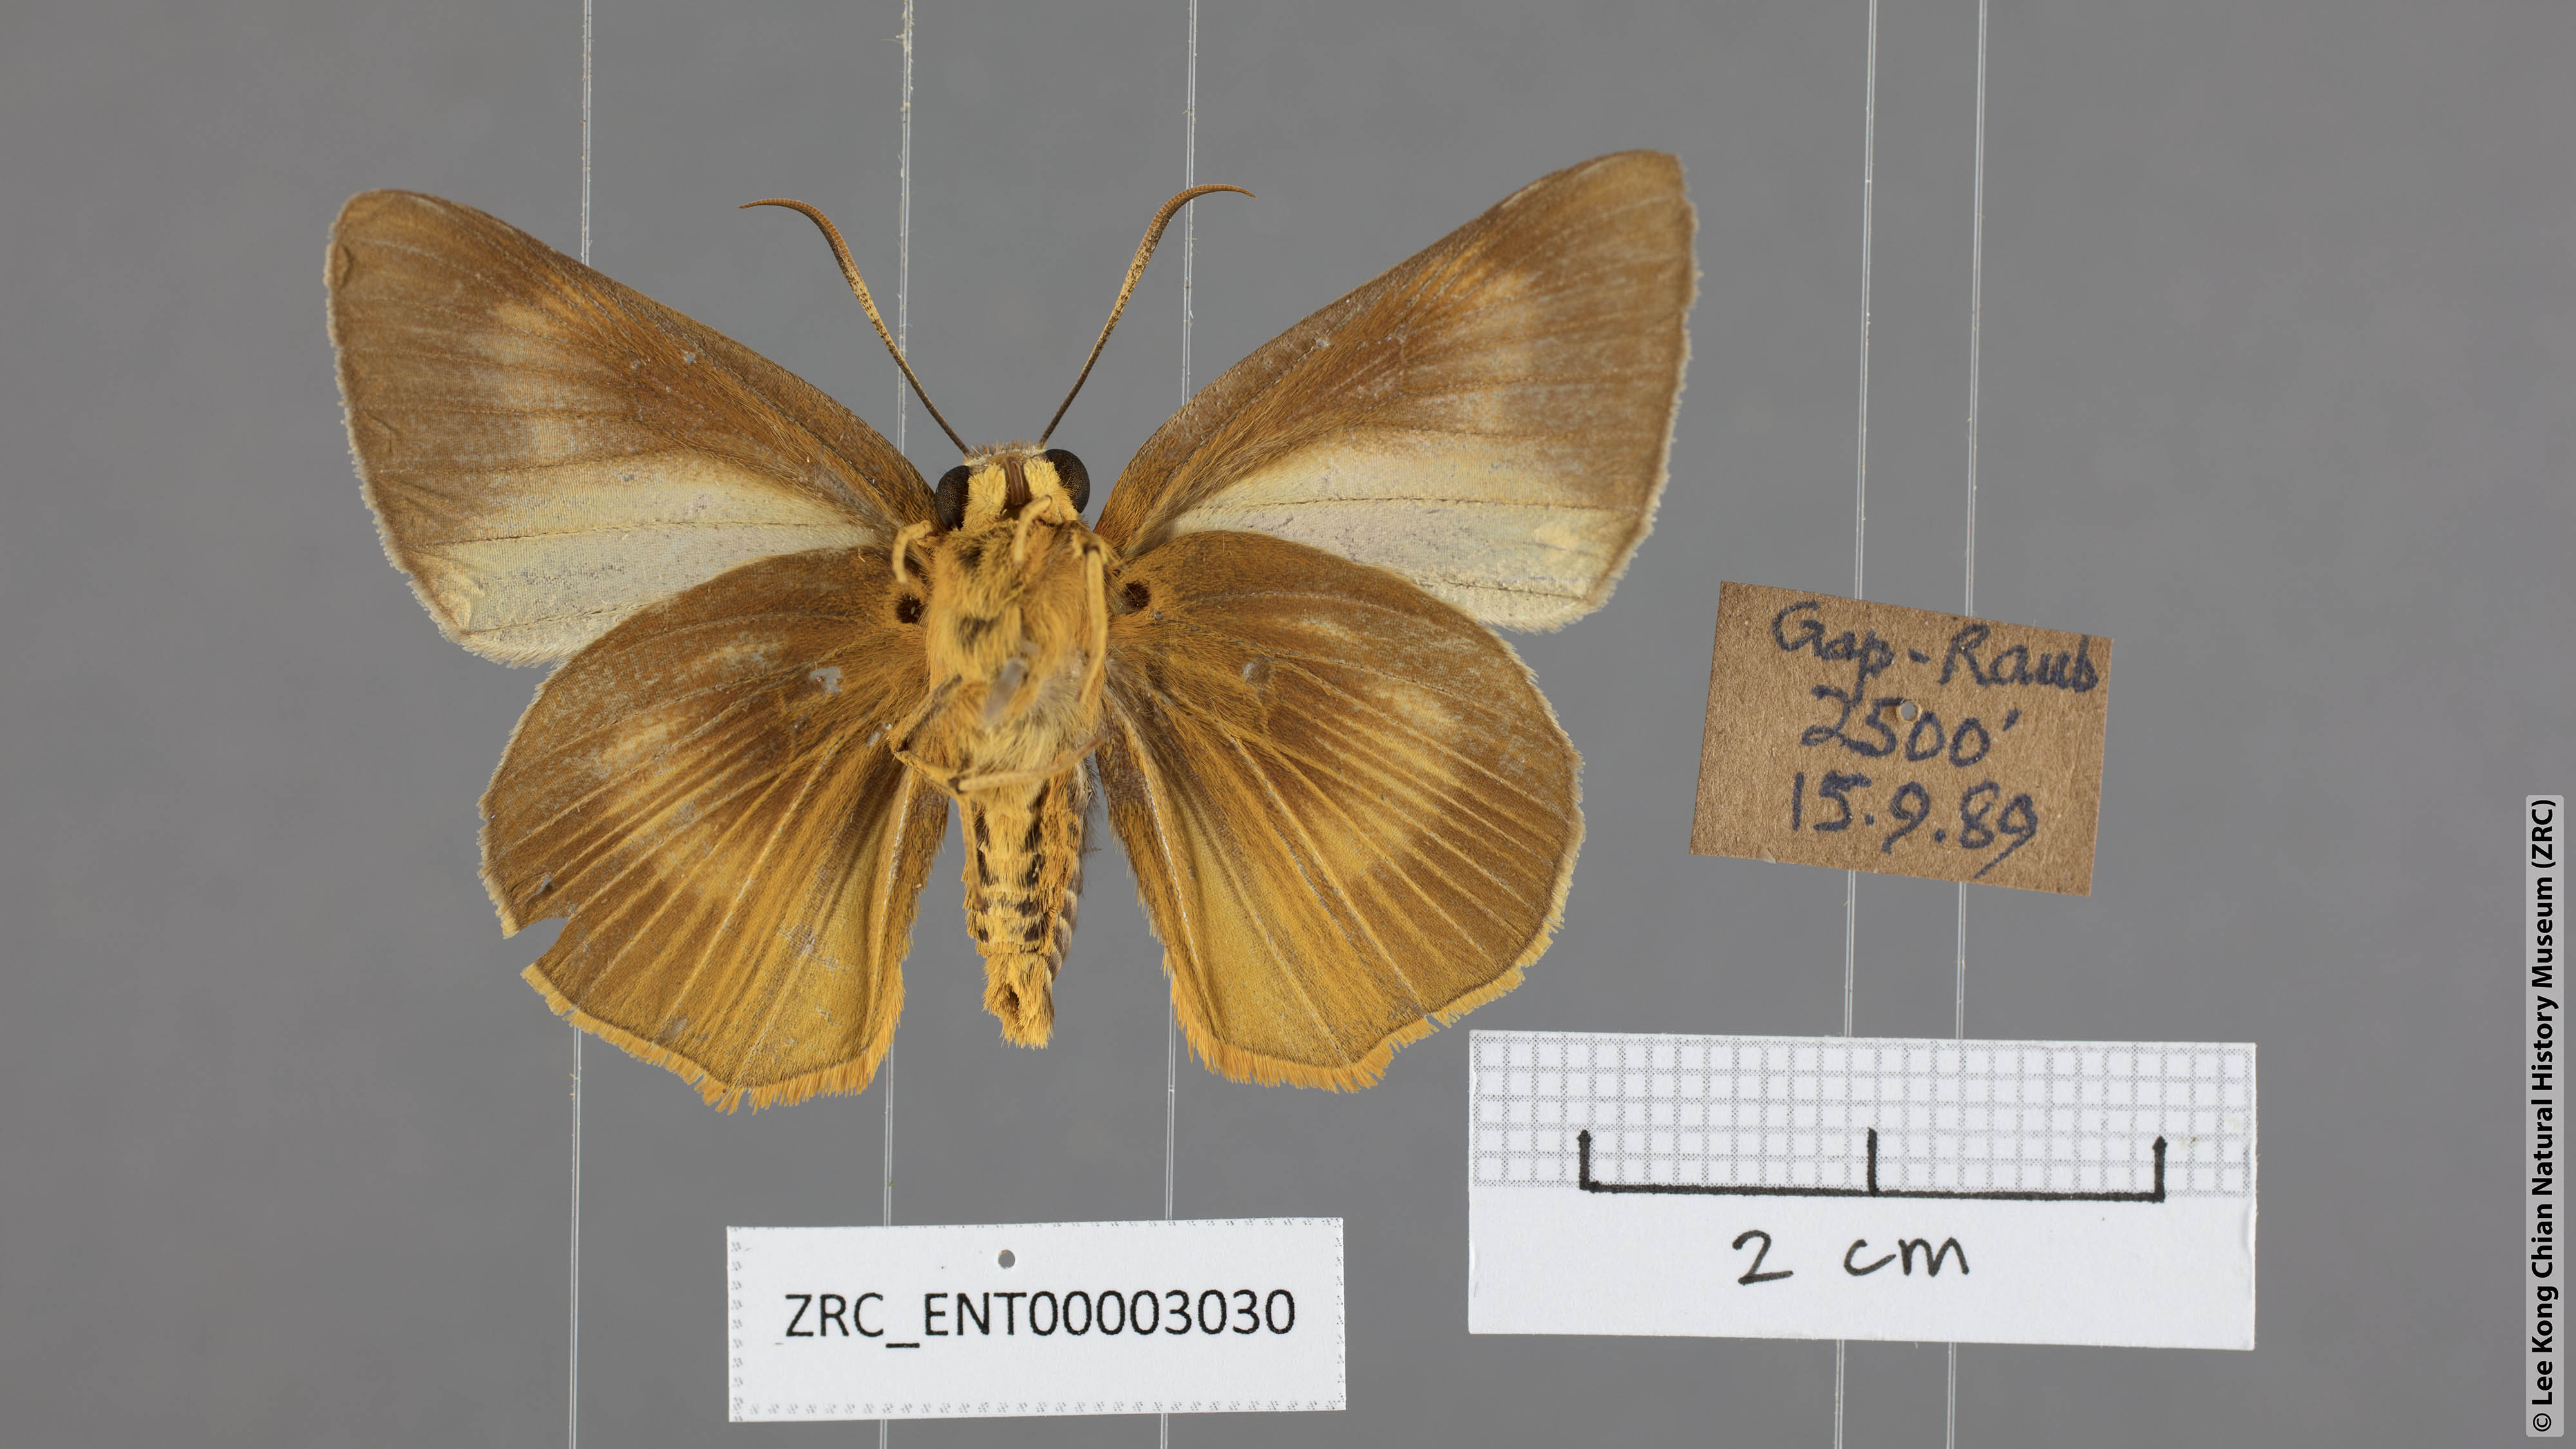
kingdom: Animalia
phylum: Arthropoda
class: Insecta
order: Lepidoptera
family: Hesperiidae
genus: Bibasis
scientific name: Bibasis Burara harisa
